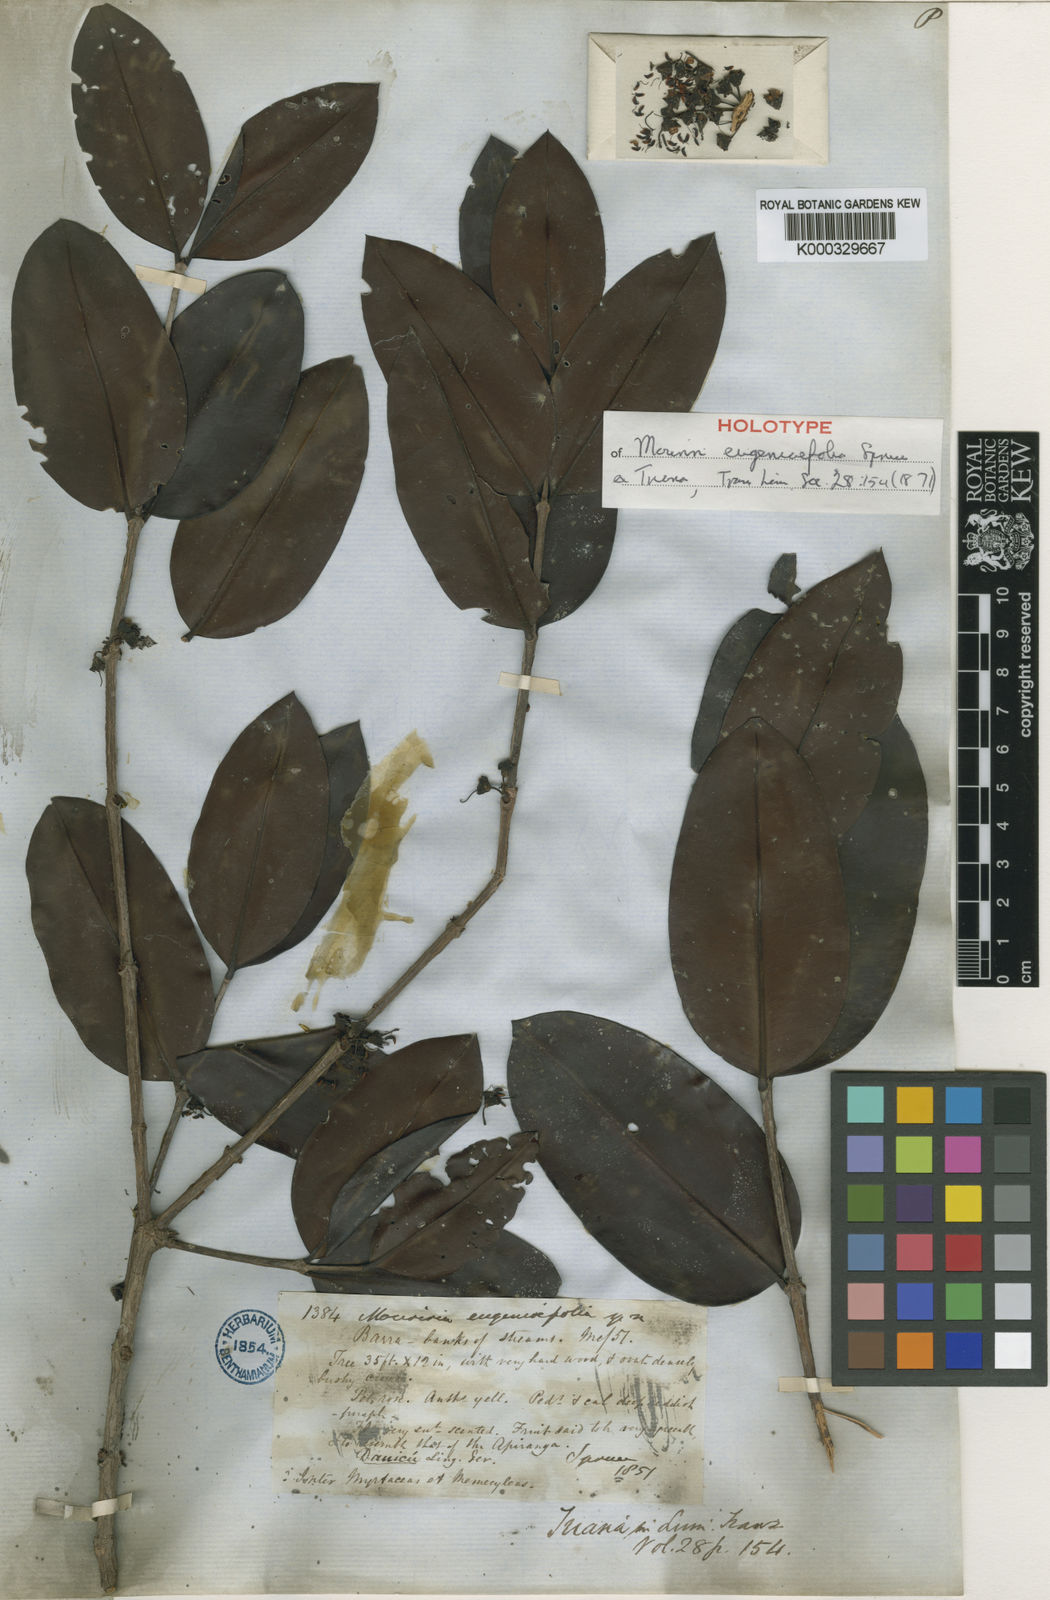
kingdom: Plantae
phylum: Tracheophyta
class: Magnoliopsida
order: Myrtales
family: Melastomataceae
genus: Mouriri
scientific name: Mouriri eugeniifolia
